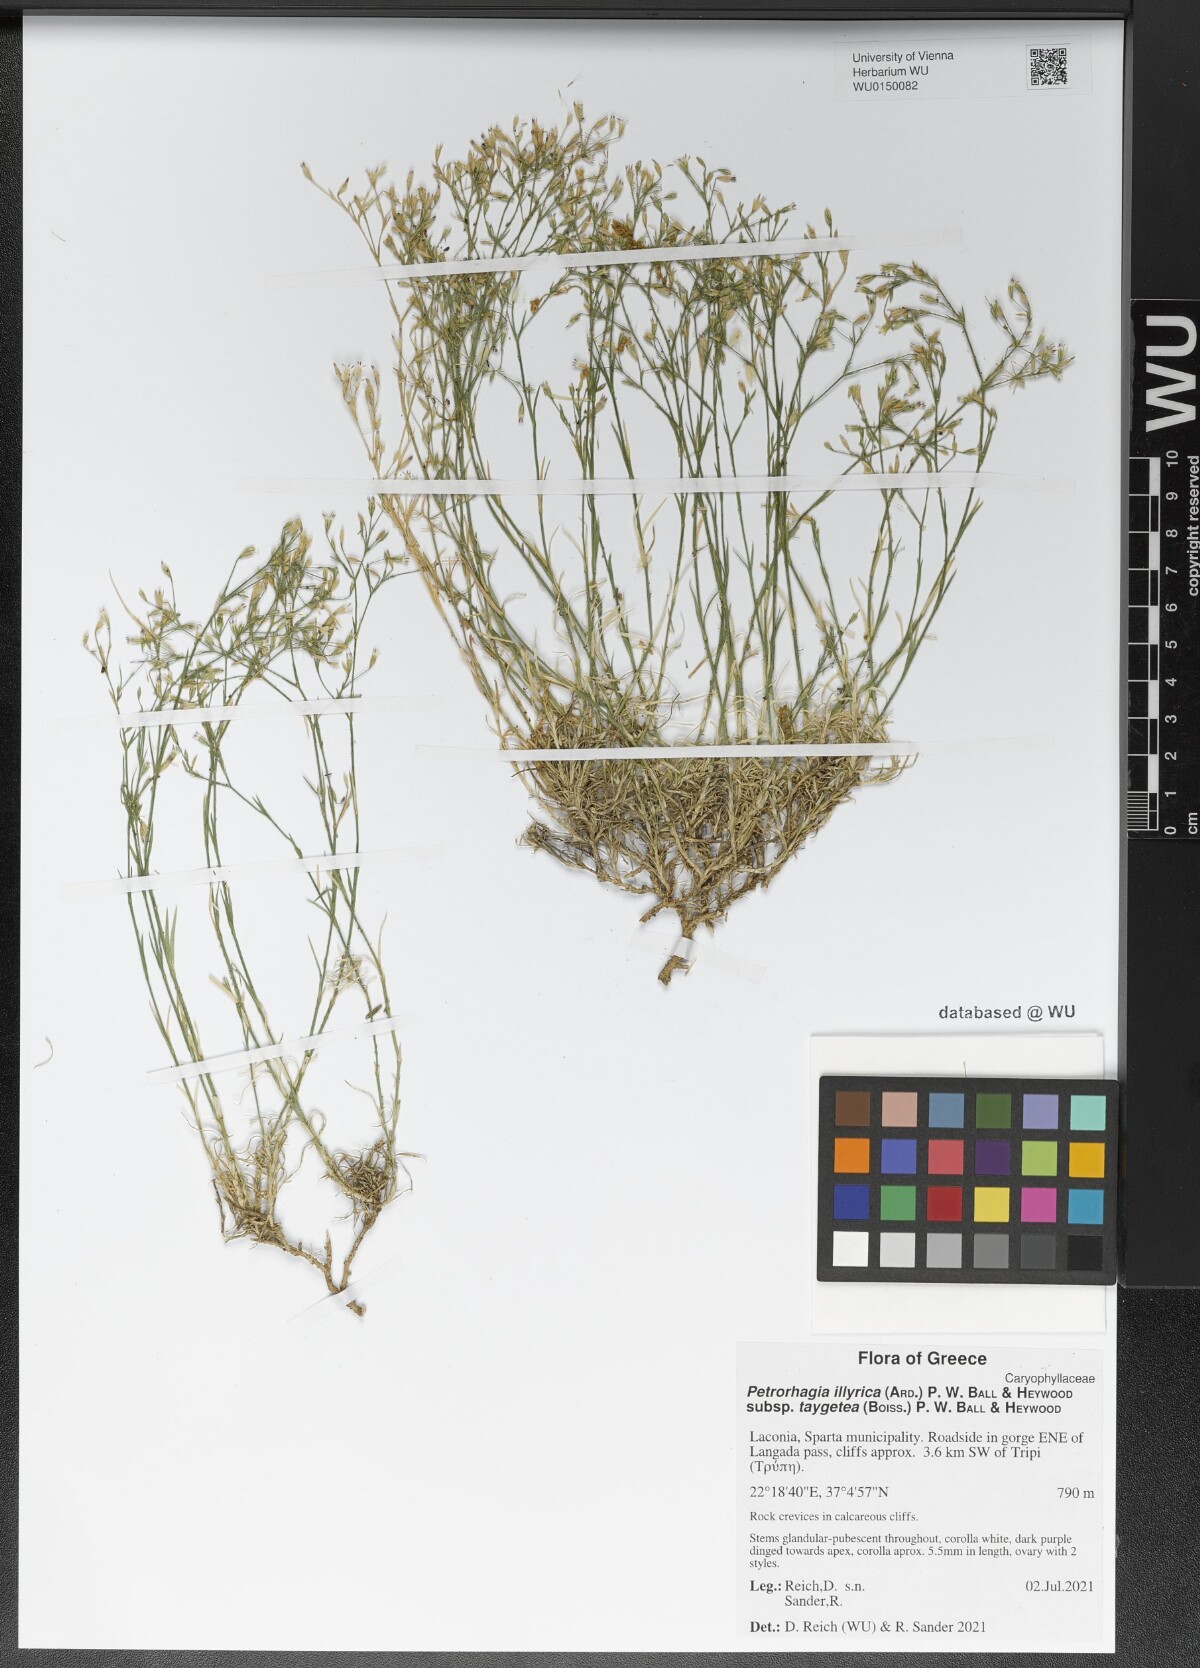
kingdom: Plantae
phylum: Tracheophyta
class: Magnoliopsida
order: Caryophyllales
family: Caryophyllaceae
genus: Dianthus
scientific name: Dianthus illyricus
